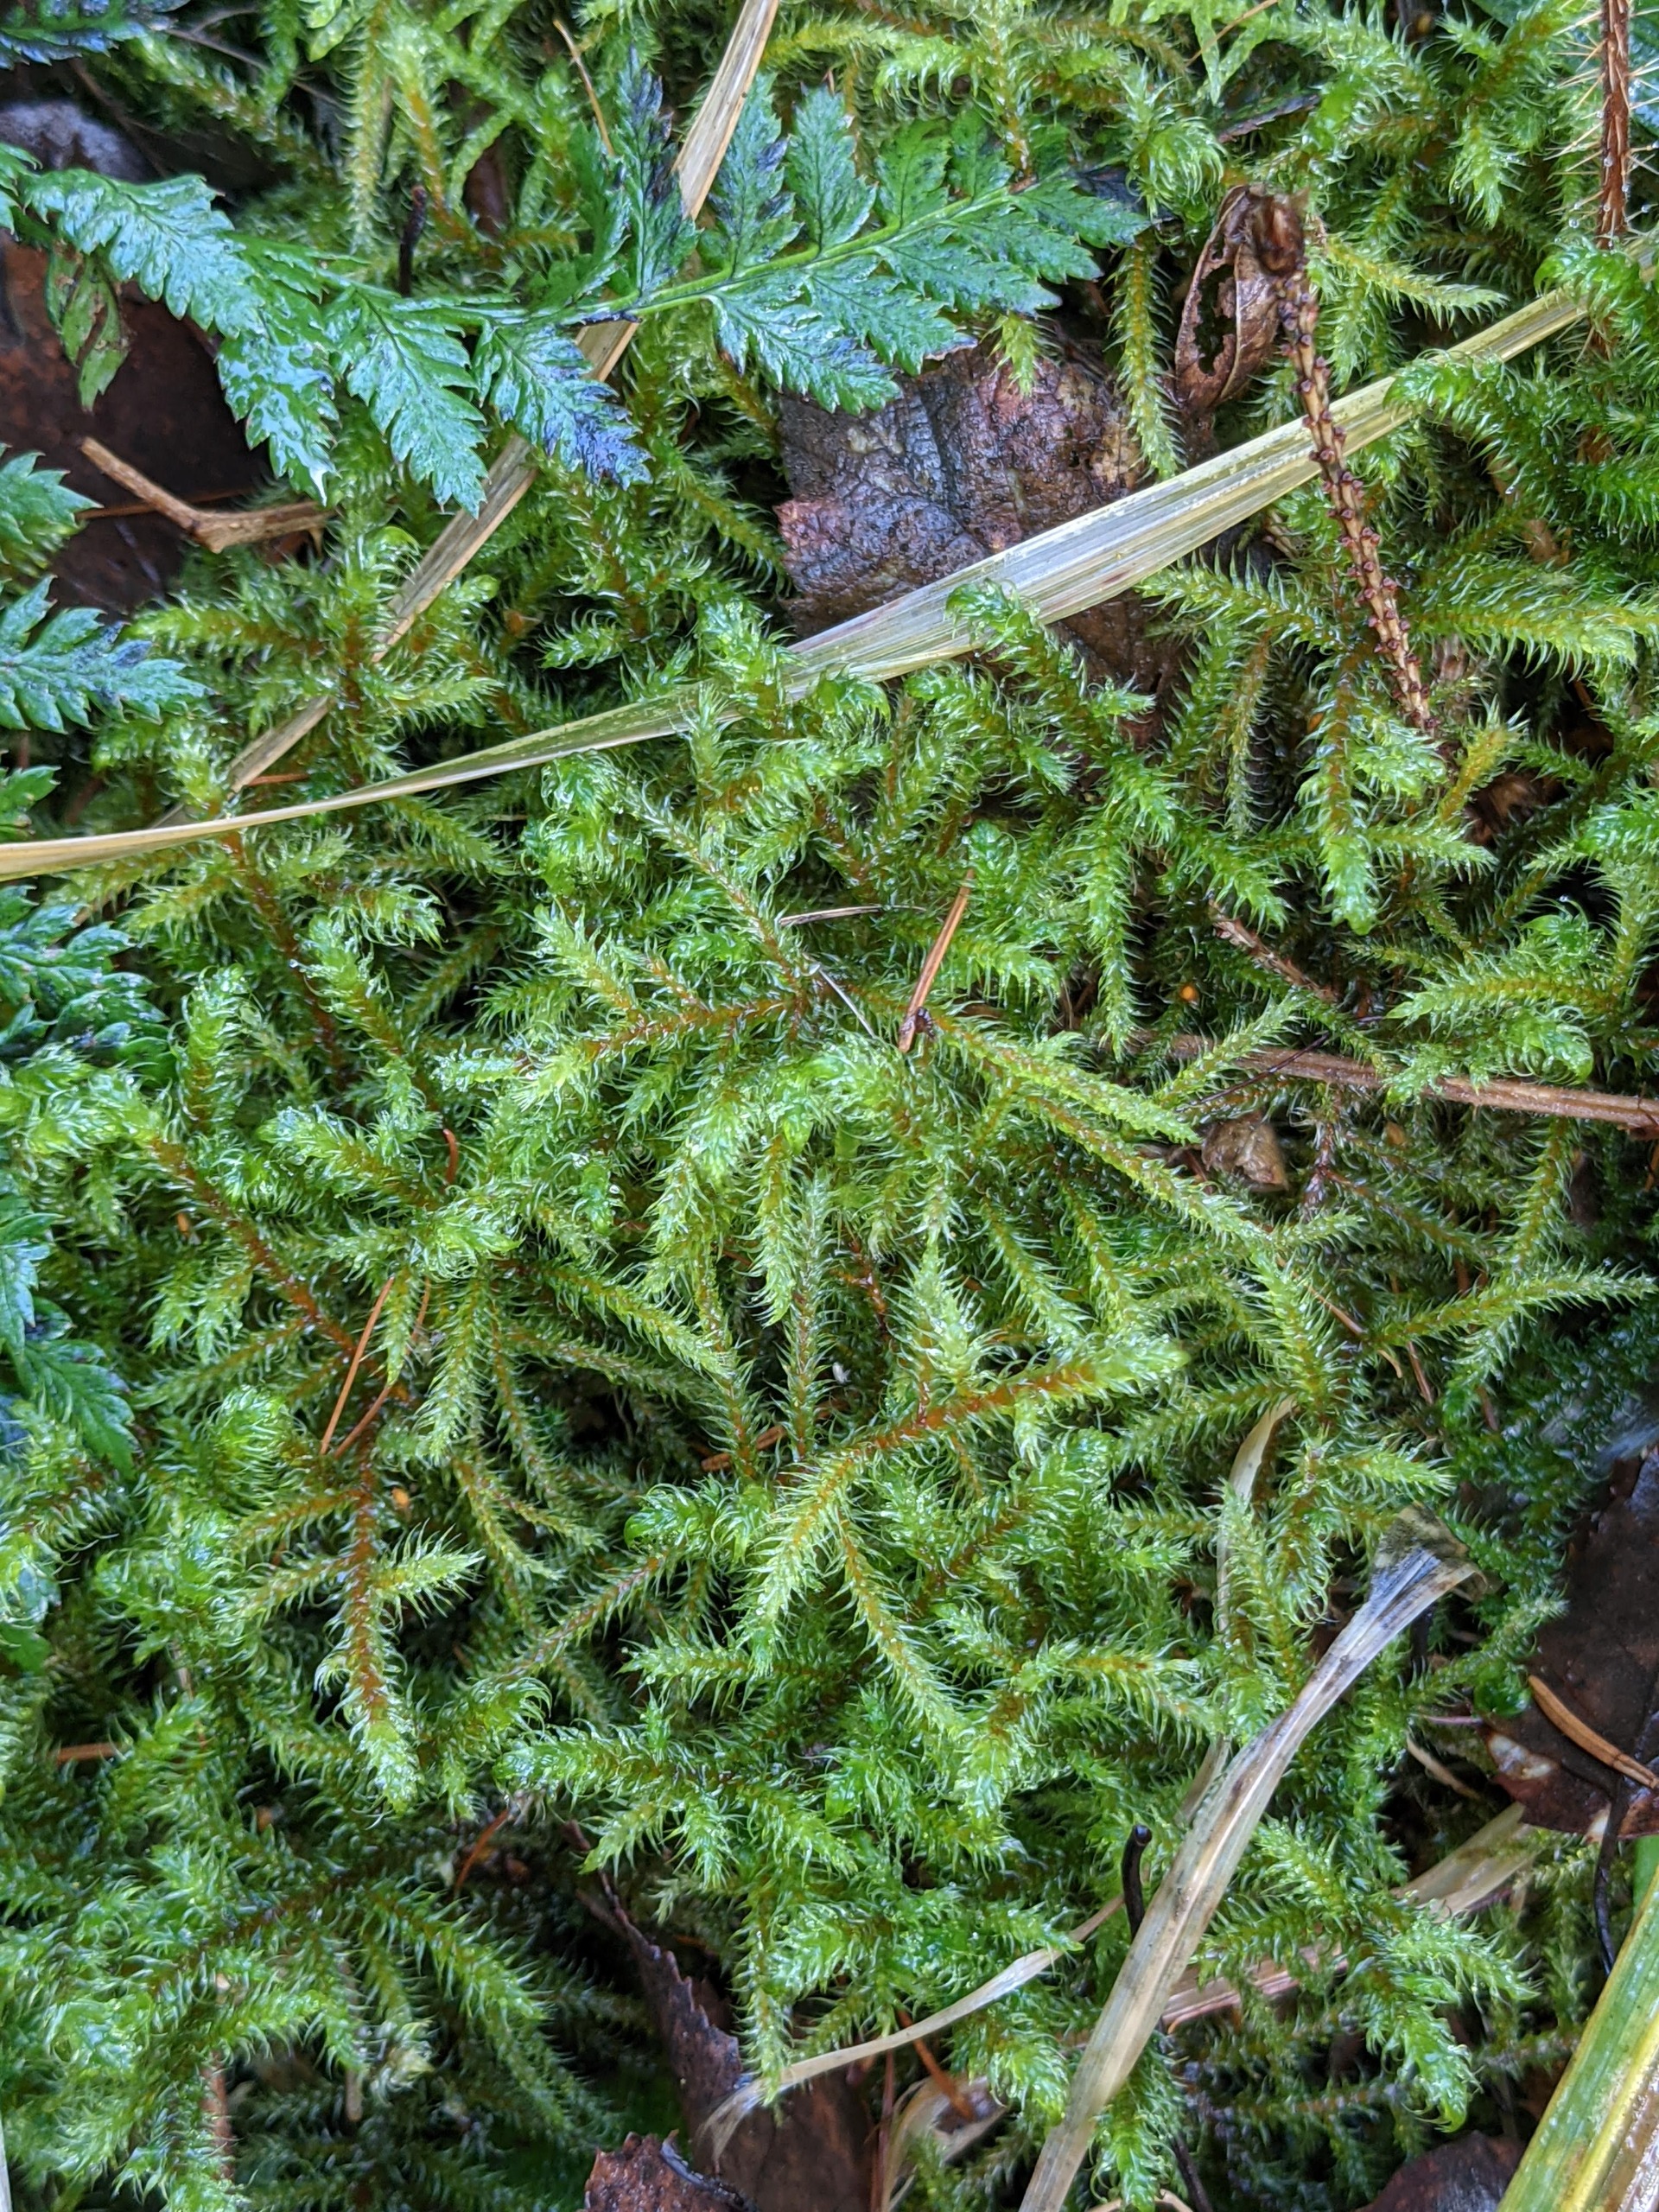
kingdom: Plantae
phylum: Bryophyta
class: Bryopsida
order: Hypnales
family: Hylocomiaceae
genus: Rhytidiadelphus
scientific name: Rhytidiadelphus loreus
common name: Ulvefod-kransemos
